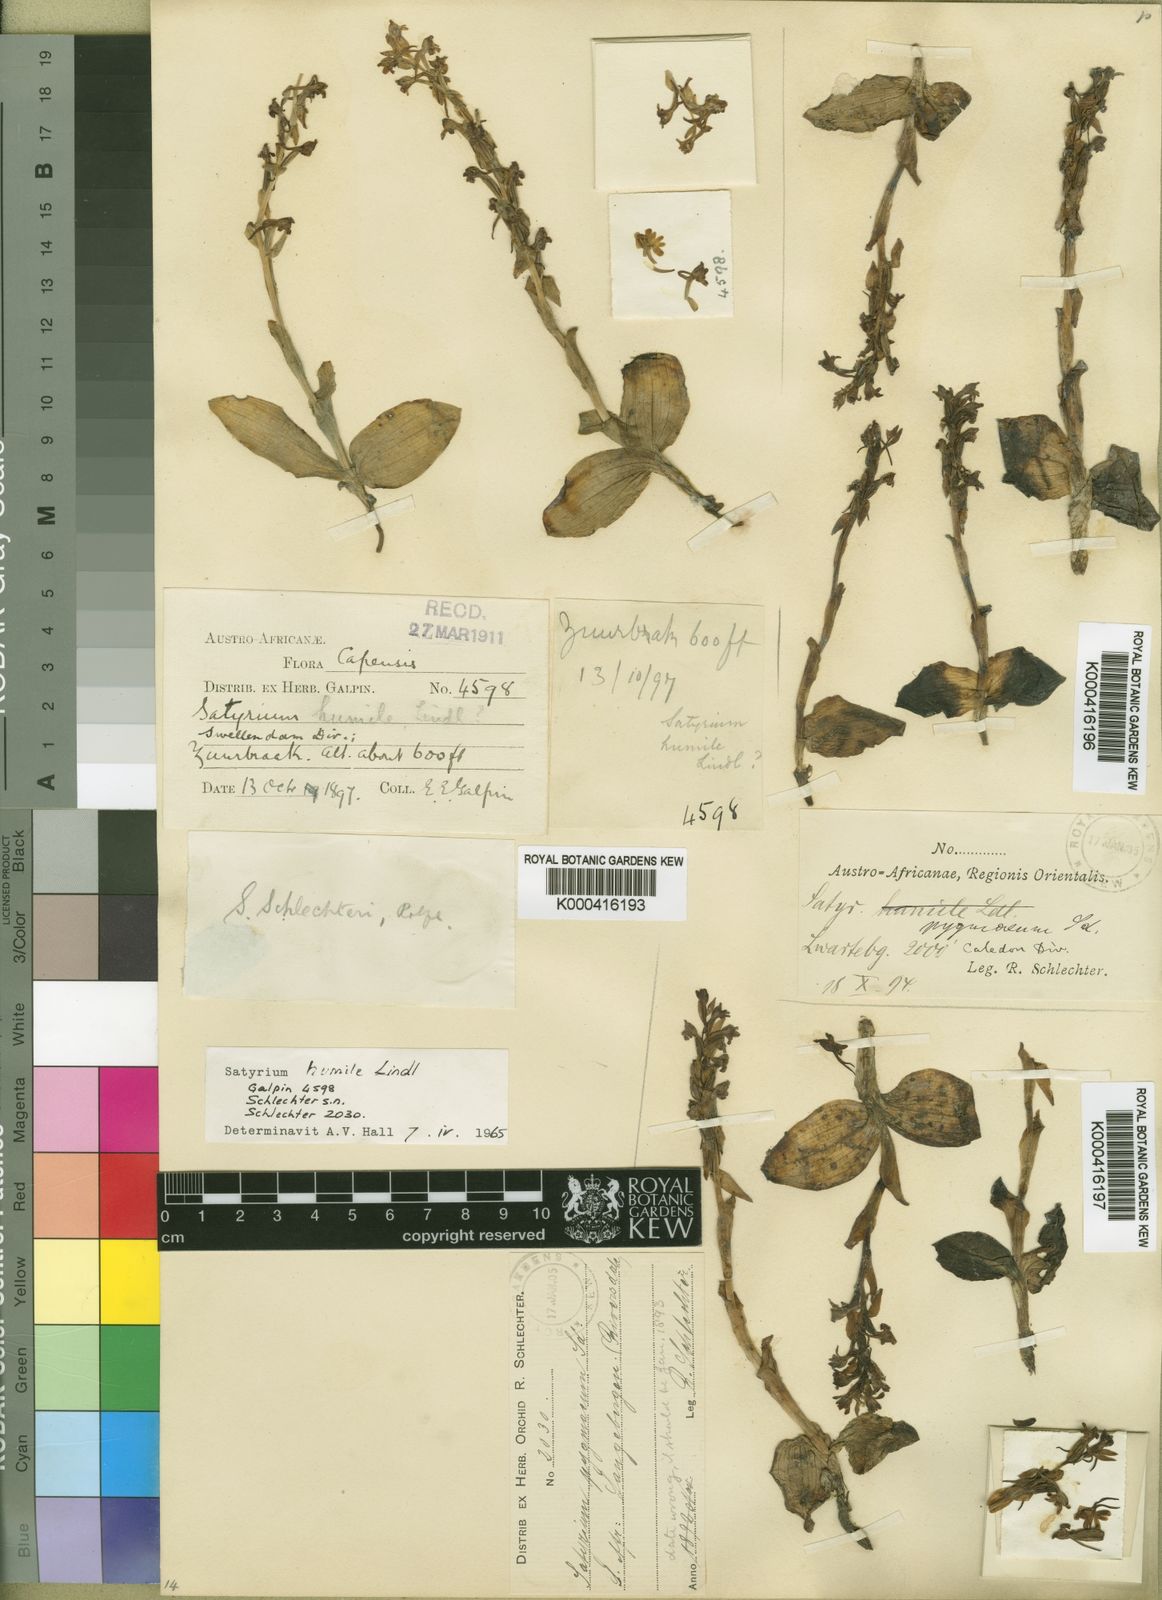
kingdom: Plantae
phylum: Tracheophyta
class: Liliopsida
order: Asparagales
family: Orchidaceae
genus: Satyrium
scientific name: Satyrium pygmaeum
